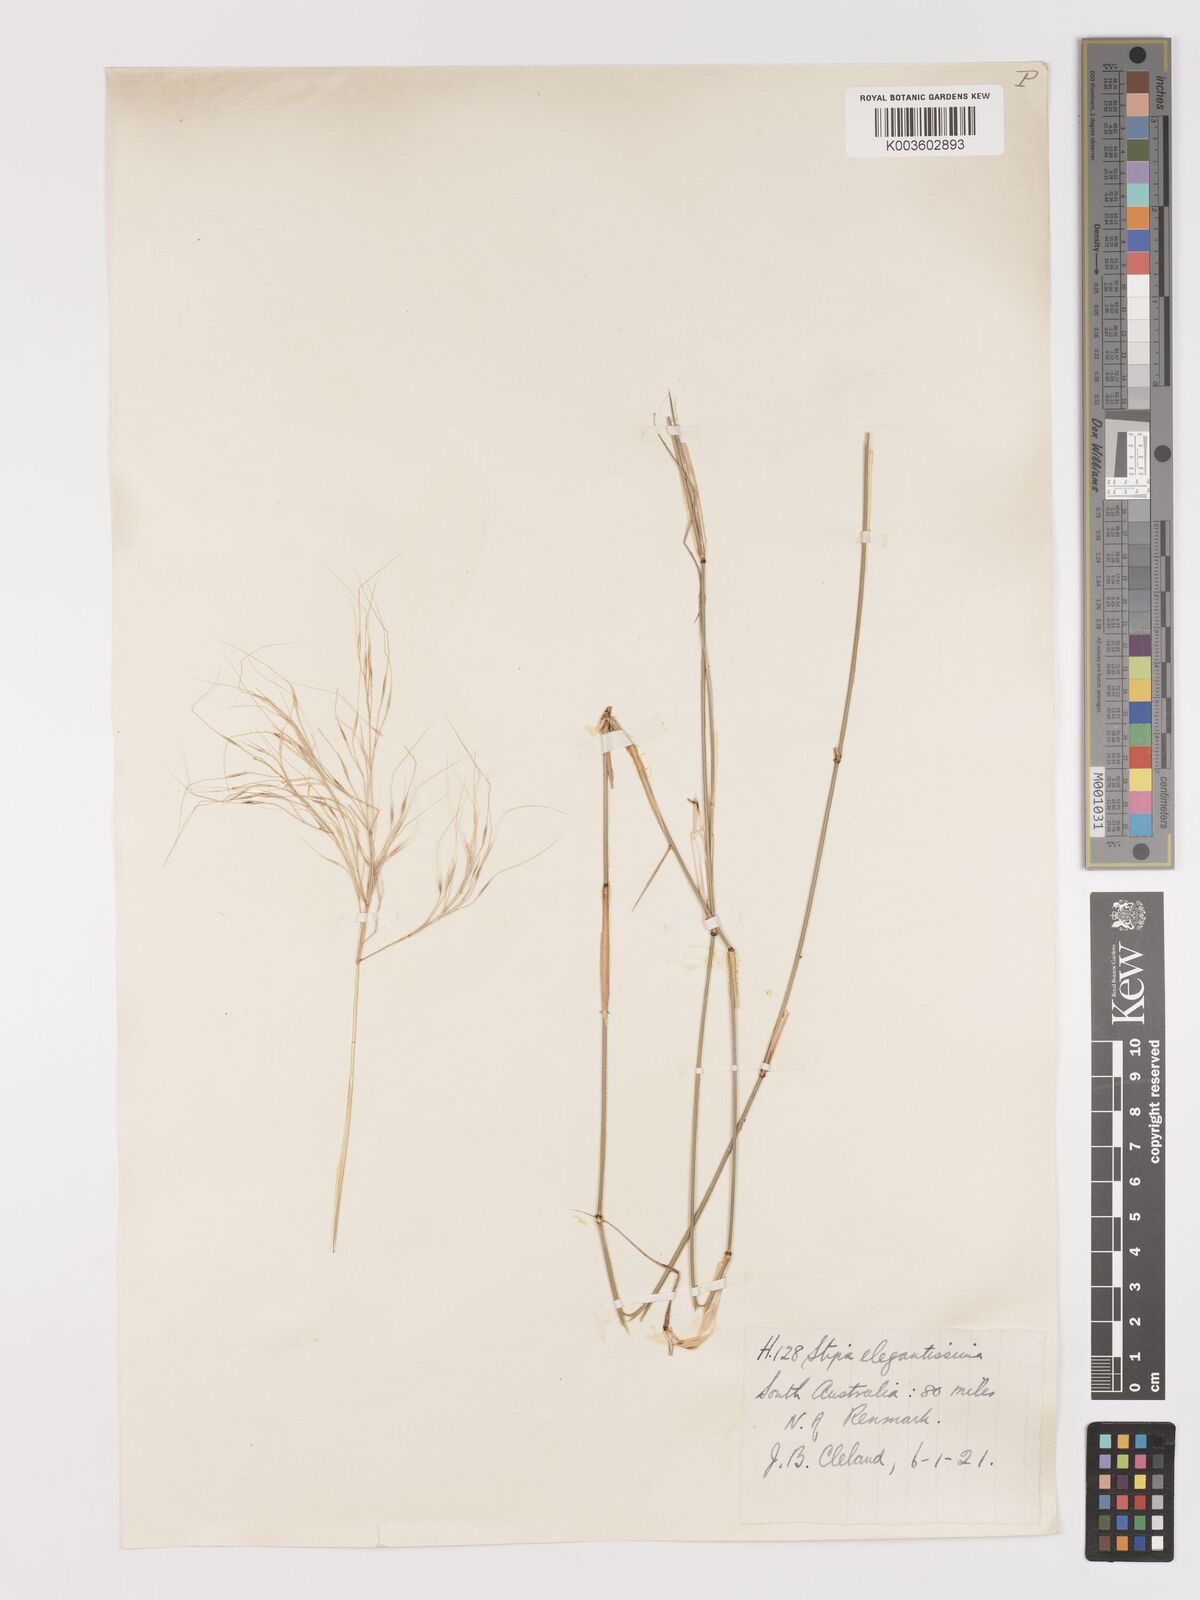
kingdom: Plantae
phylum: Tracheophyta
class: Liliopsida
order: Poales
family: Poaceae
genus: Austrostipa
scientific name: Austrostipa elegantissima
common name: Feather spear grass
